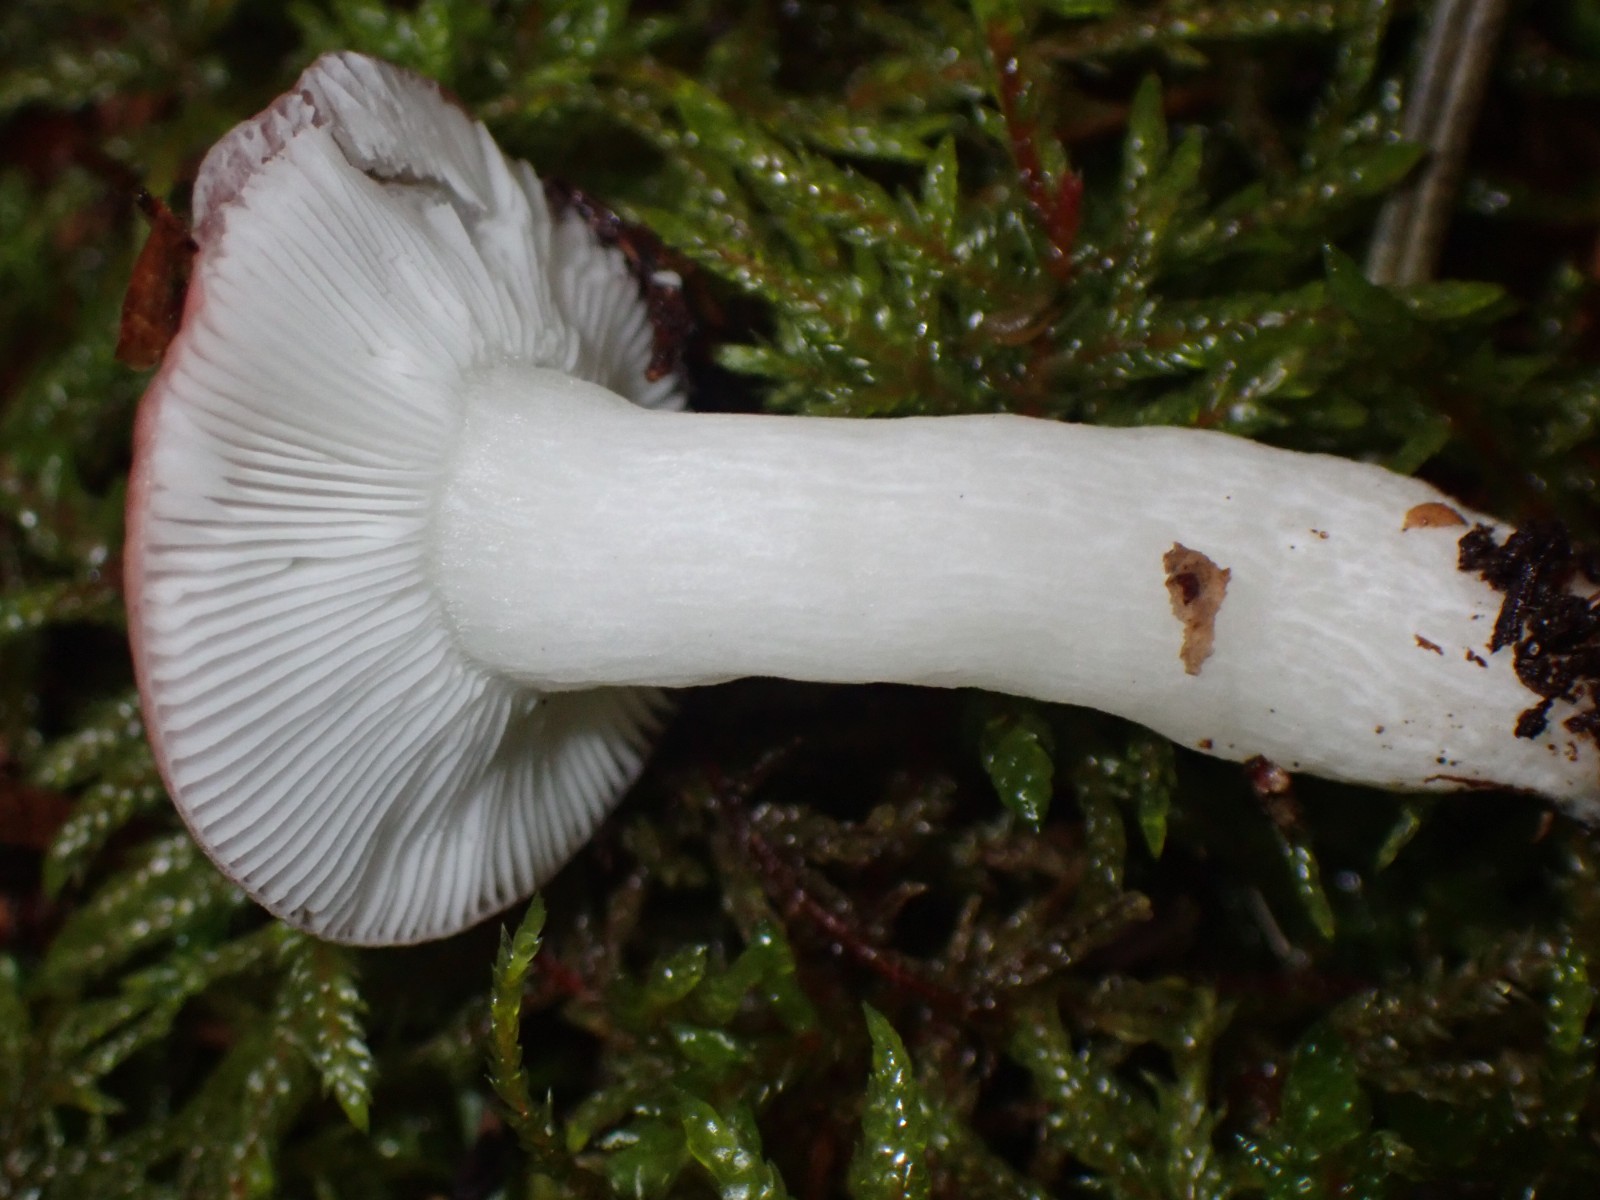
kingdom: Fungi
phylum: Basidiomycota
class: Agaricomycetes
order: Russulales
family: Russulaceae
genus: Russula
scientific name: Russula
